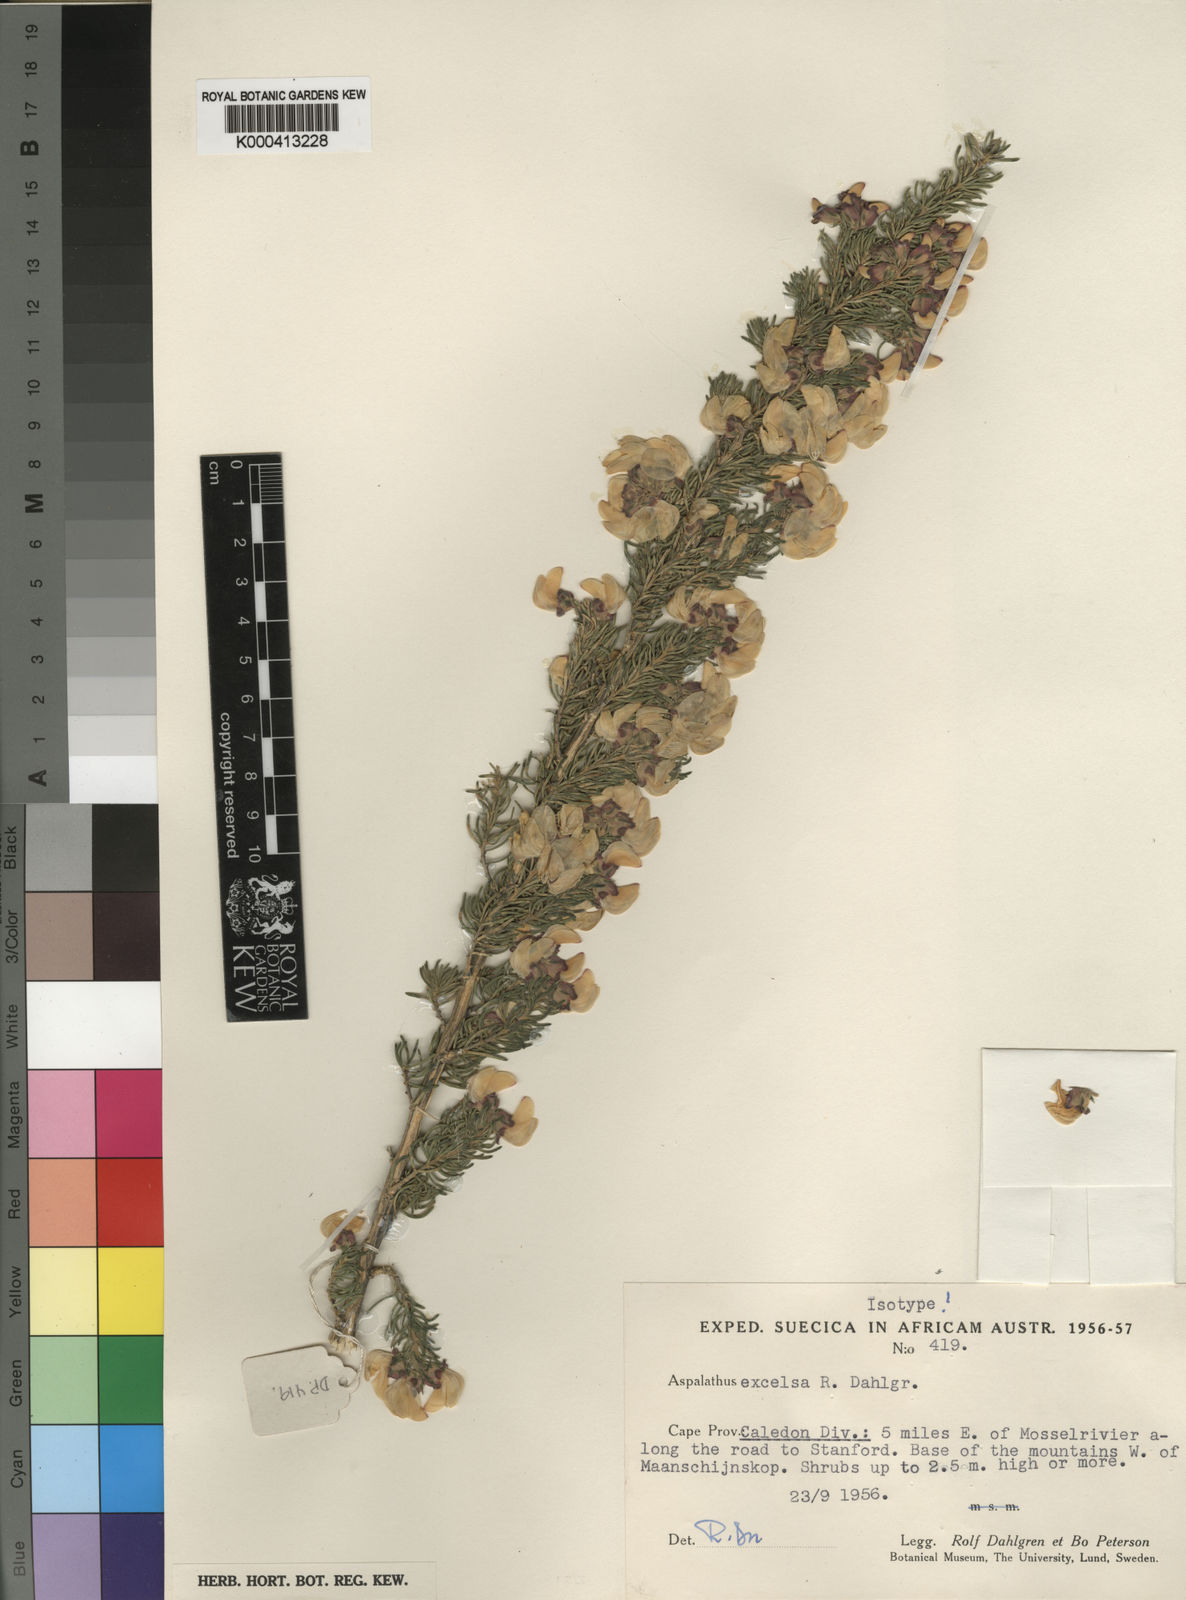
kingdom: Plantae
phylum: Tracheophyta
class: Magnoliopsida
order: Fabales
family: Fabaceae
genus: Aspalathus
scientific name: Aspalathus excelsa
